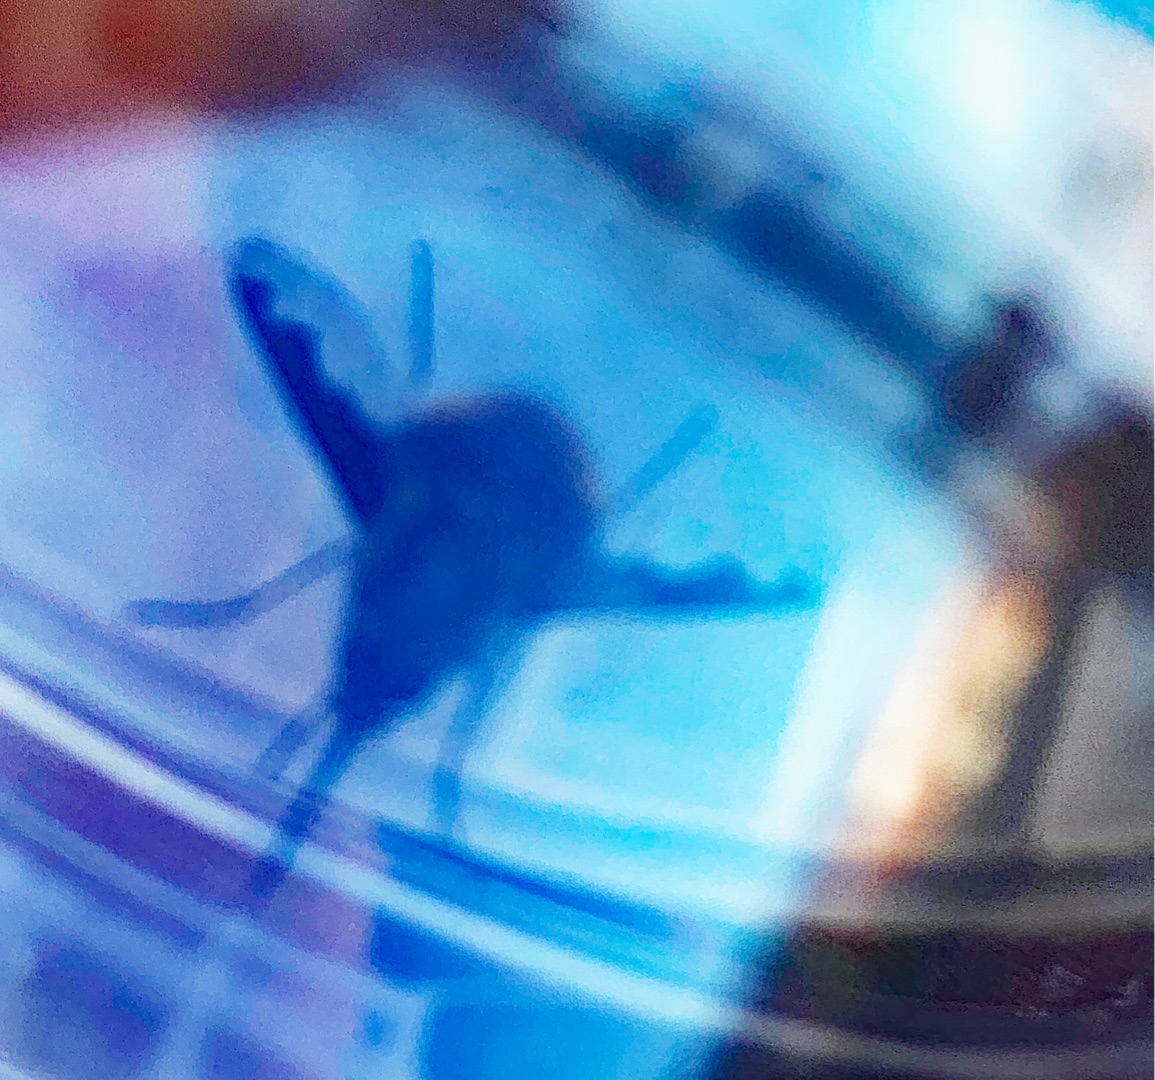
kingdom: Animalia
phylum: Arthropoda
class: Insecta
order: Diptera
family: Bombyliidae
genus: Bombylius
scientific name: Bombylius major
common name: Stor humleflue
